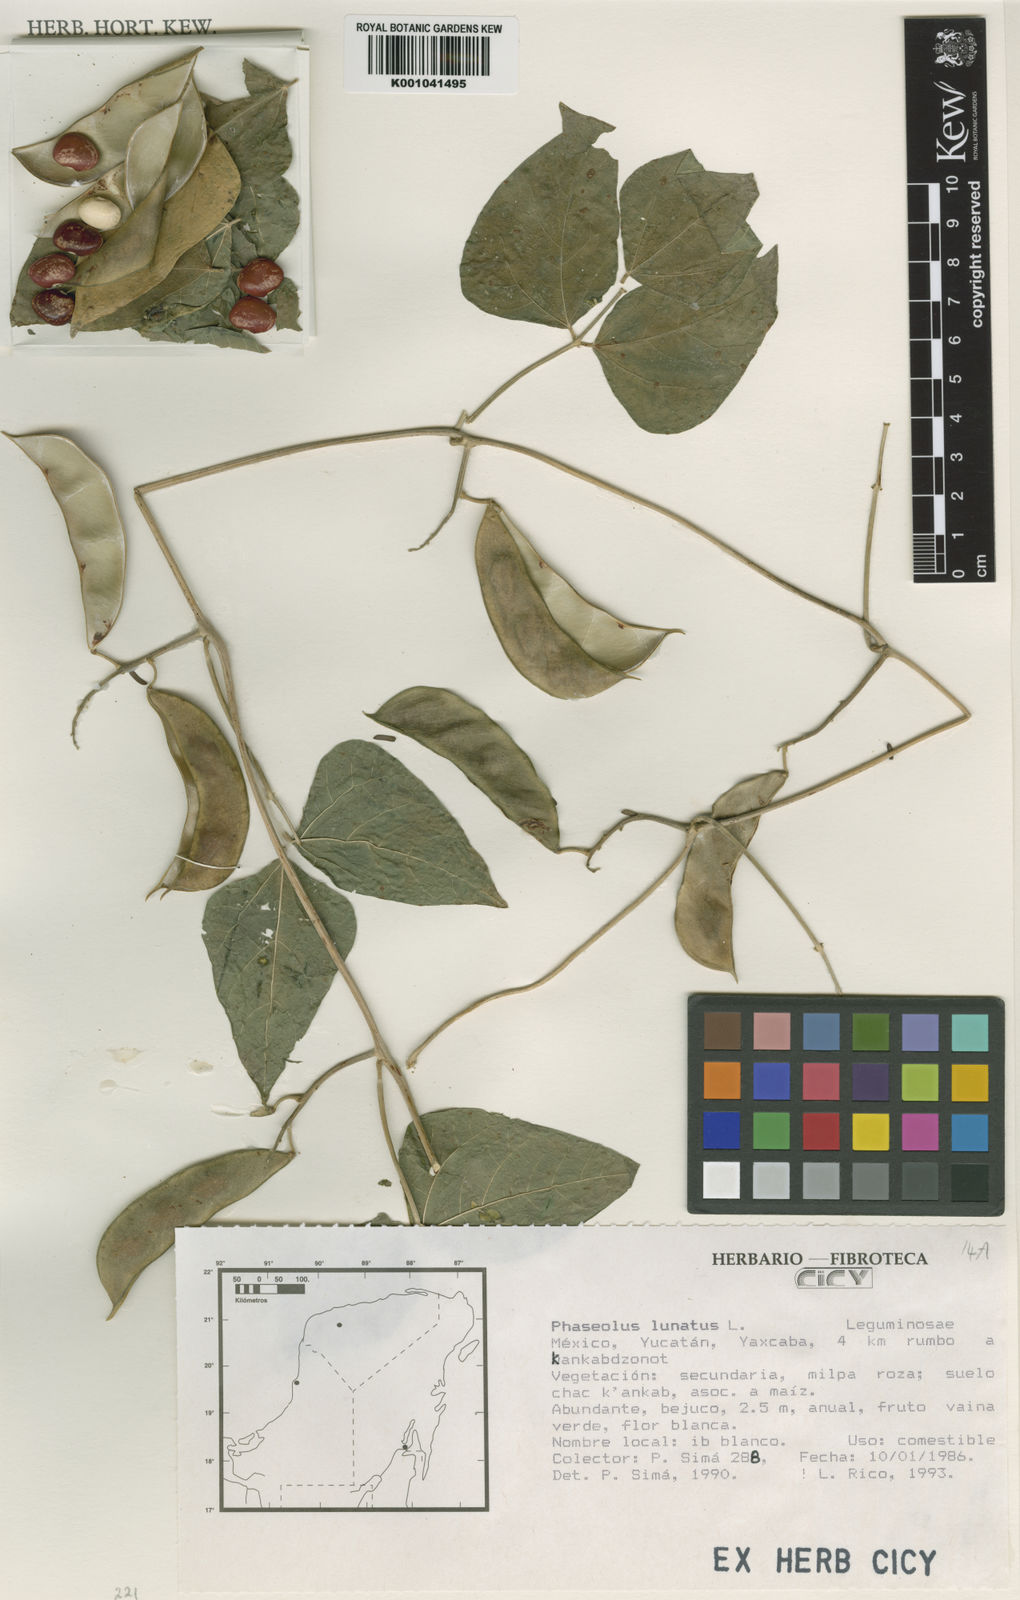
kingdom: Plantae
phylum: Tracheophyta
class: Magnoliopsida
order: Fabales
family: Fabaceae
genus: Phaseolus
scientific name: Phaseolus lunatus
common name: Sieva bean
